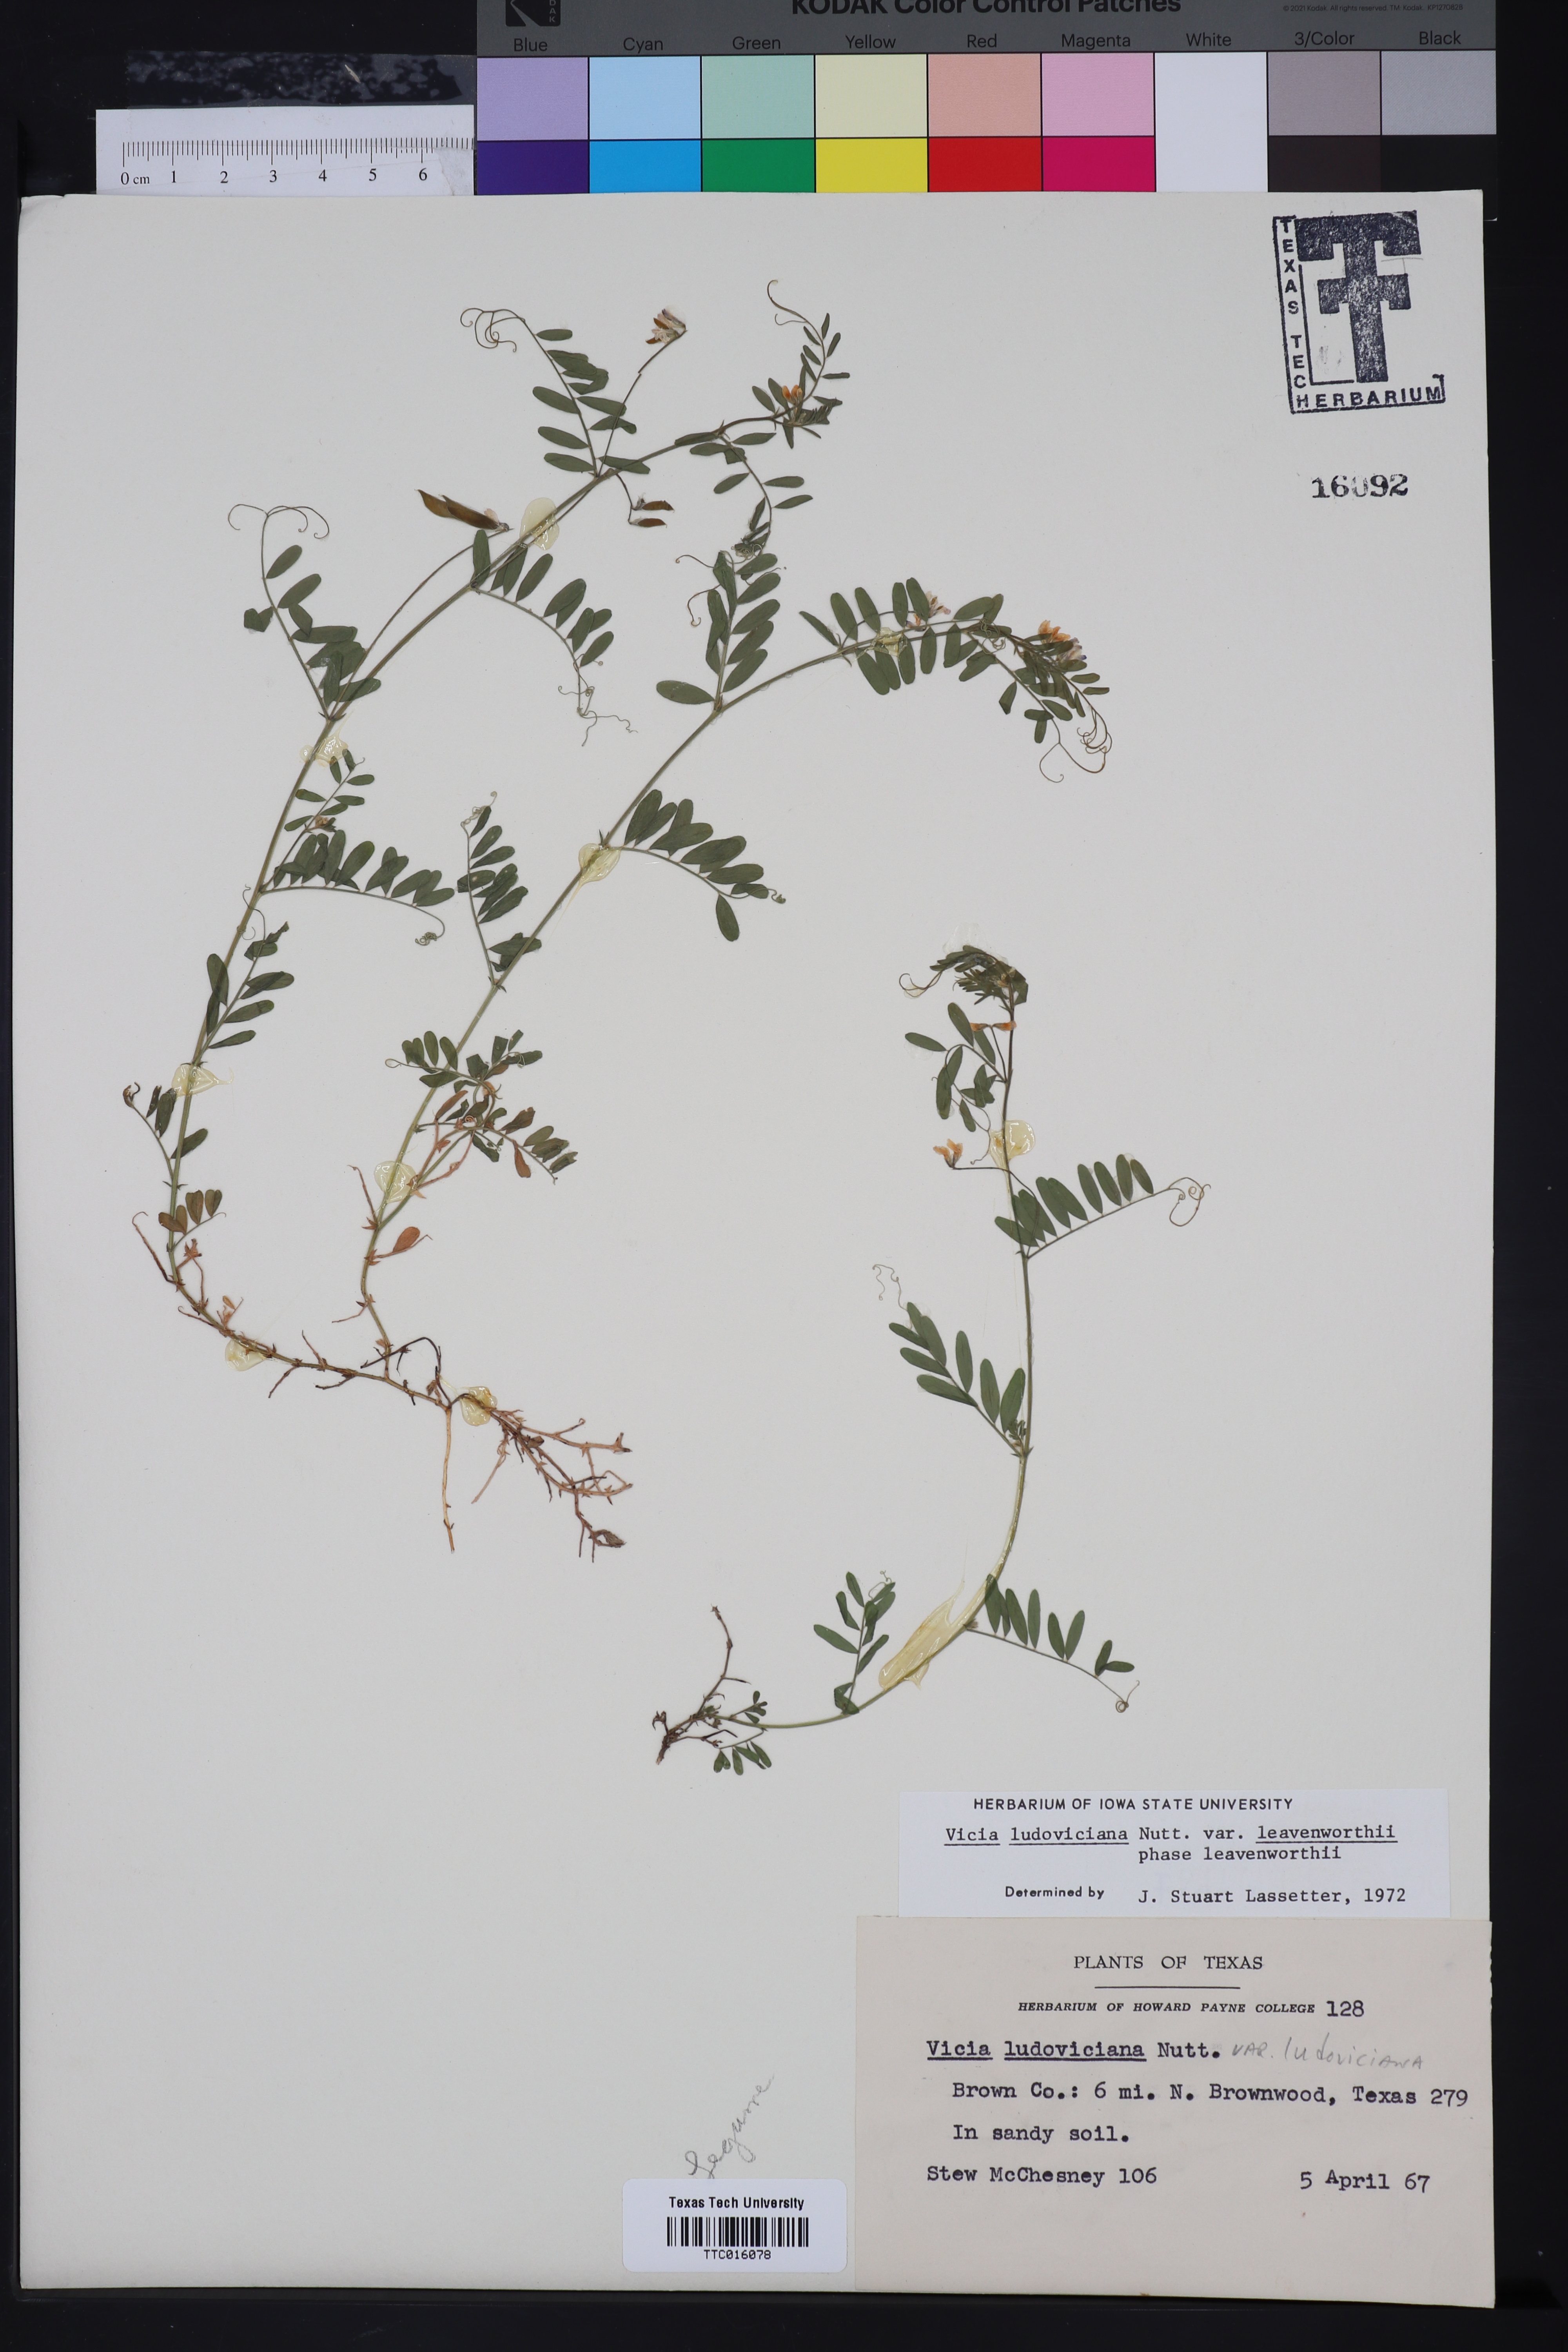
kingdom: Plantae
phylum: Tracheophyta
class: Magnoliopsida
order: Fabales
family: Fabaceae
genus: Vicia
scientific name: Vicia ludoviciana
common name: Louisiana vetch
